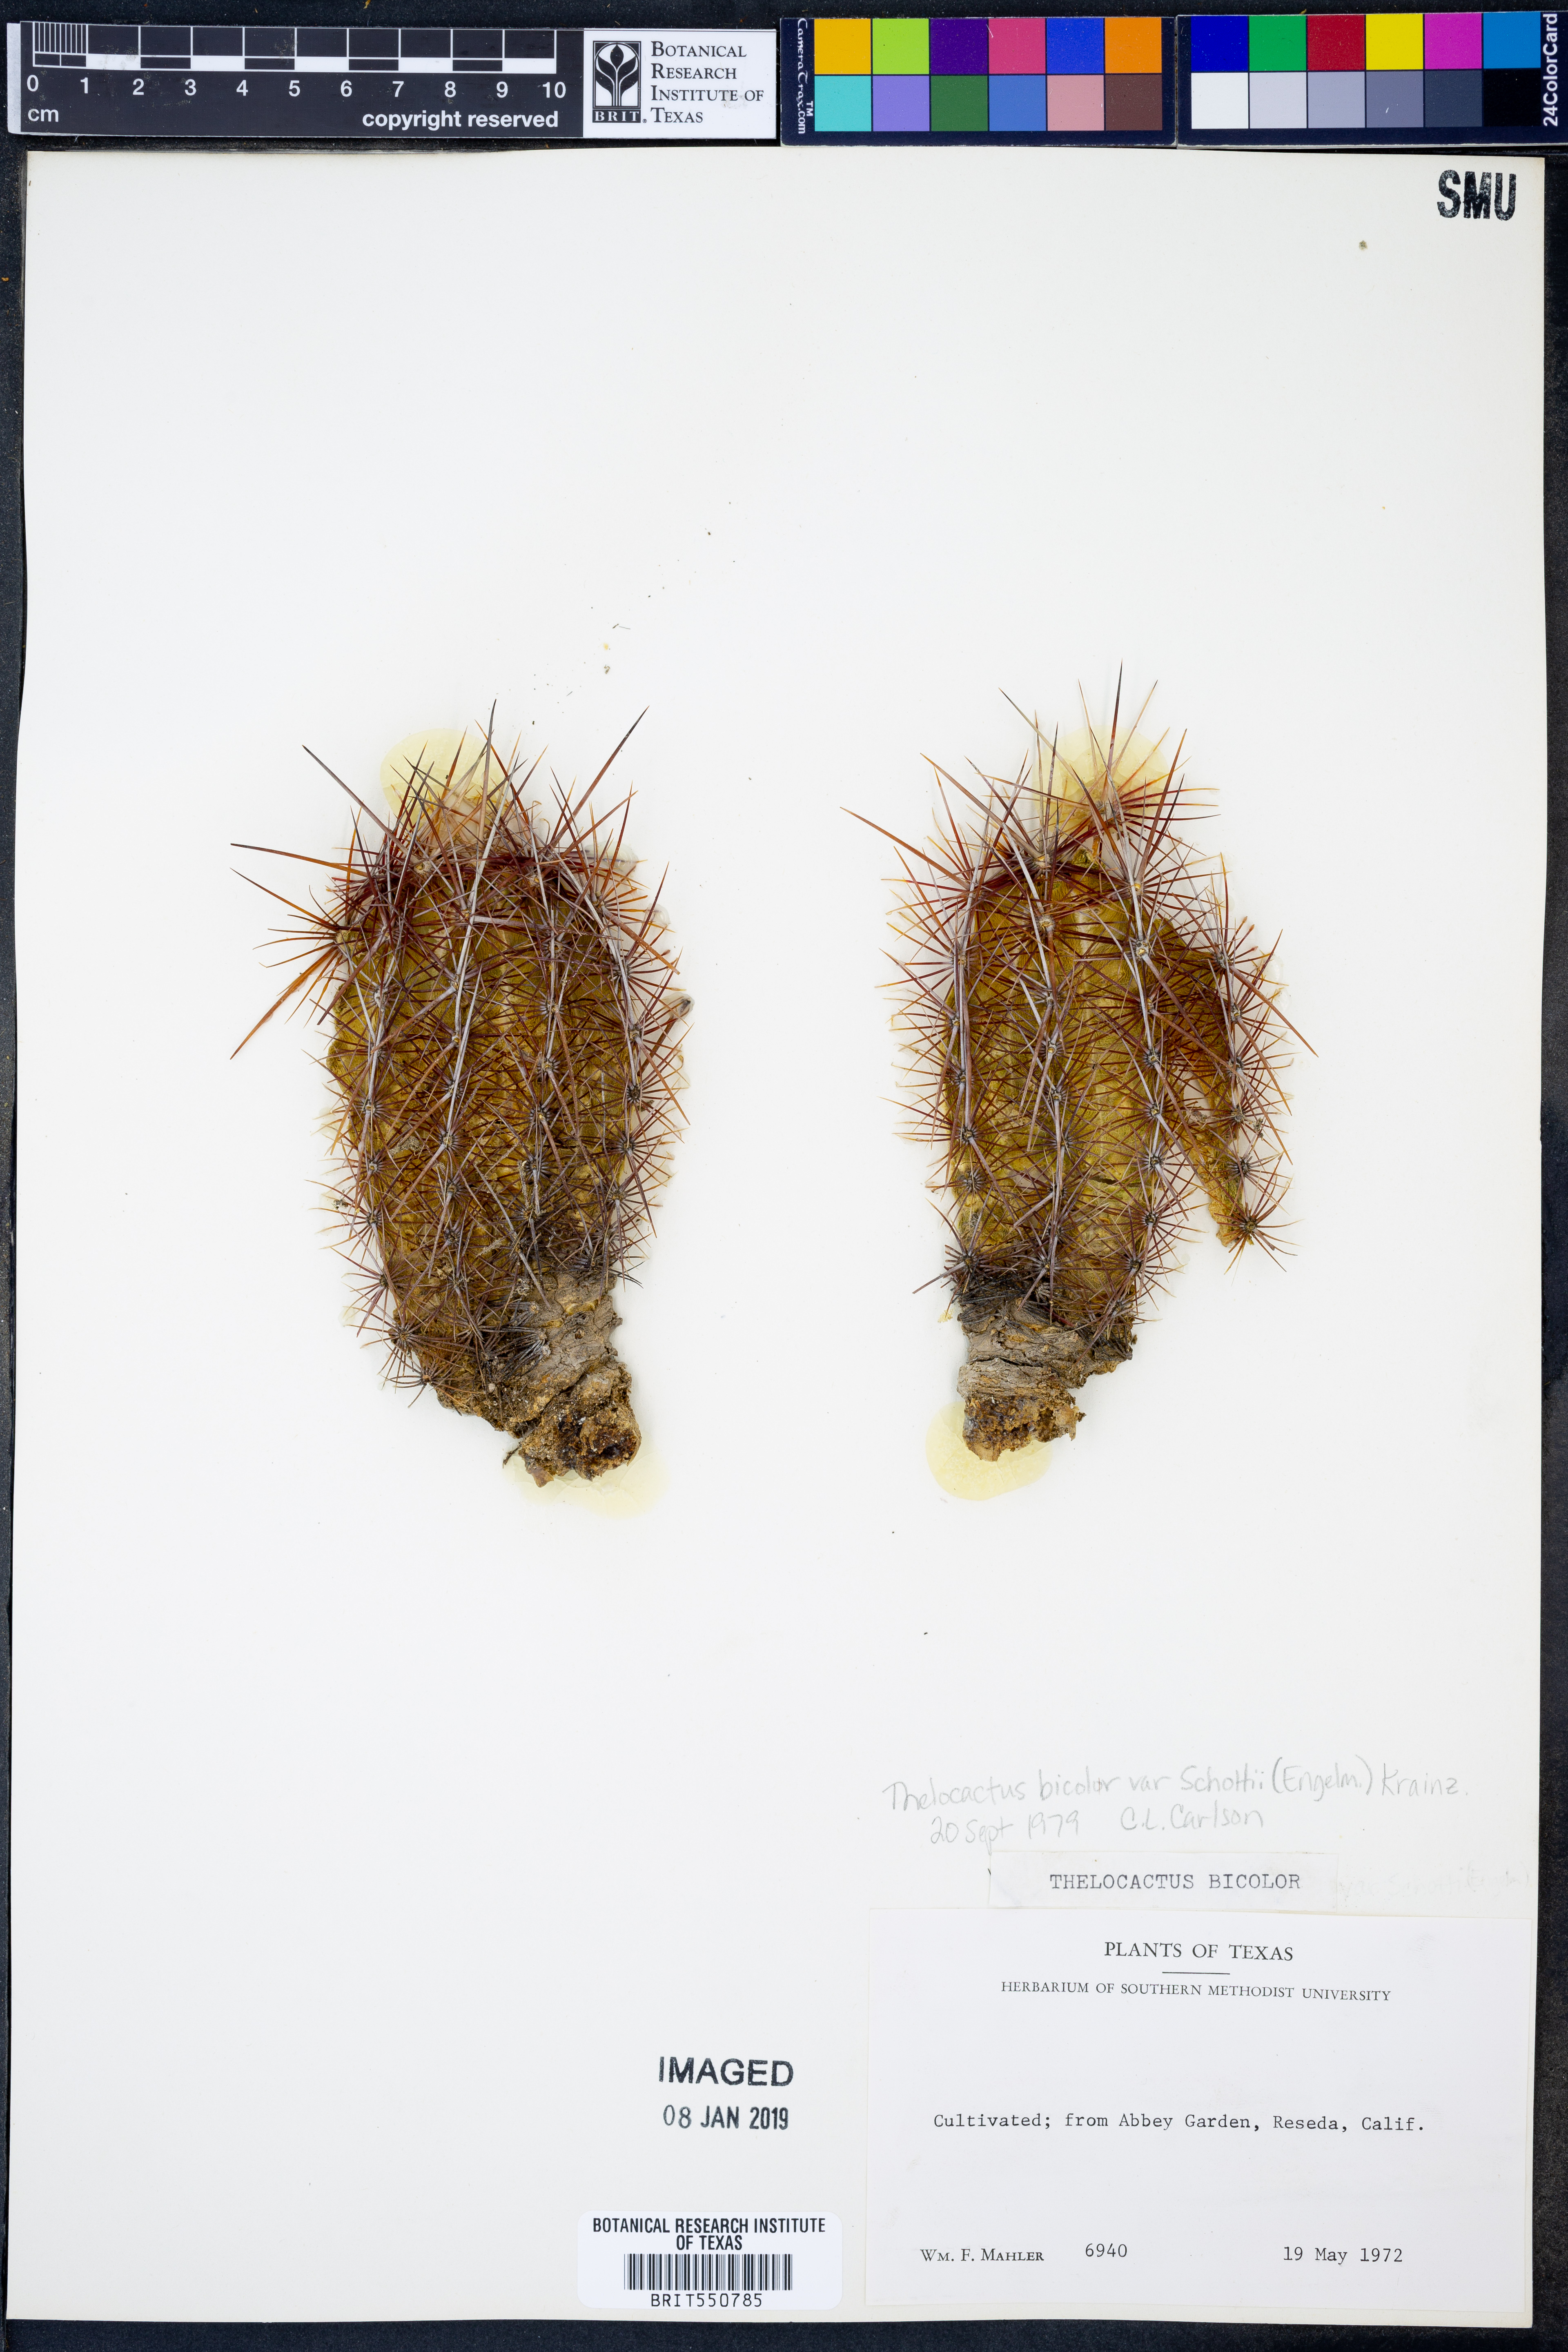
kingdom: Plantae
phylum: Tracheophyta
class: Magnoliopsida
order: Caryophyllales
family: Cactaceae
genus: Thelocactus
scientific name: Thelocactus bicolor
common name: Glory of texas
